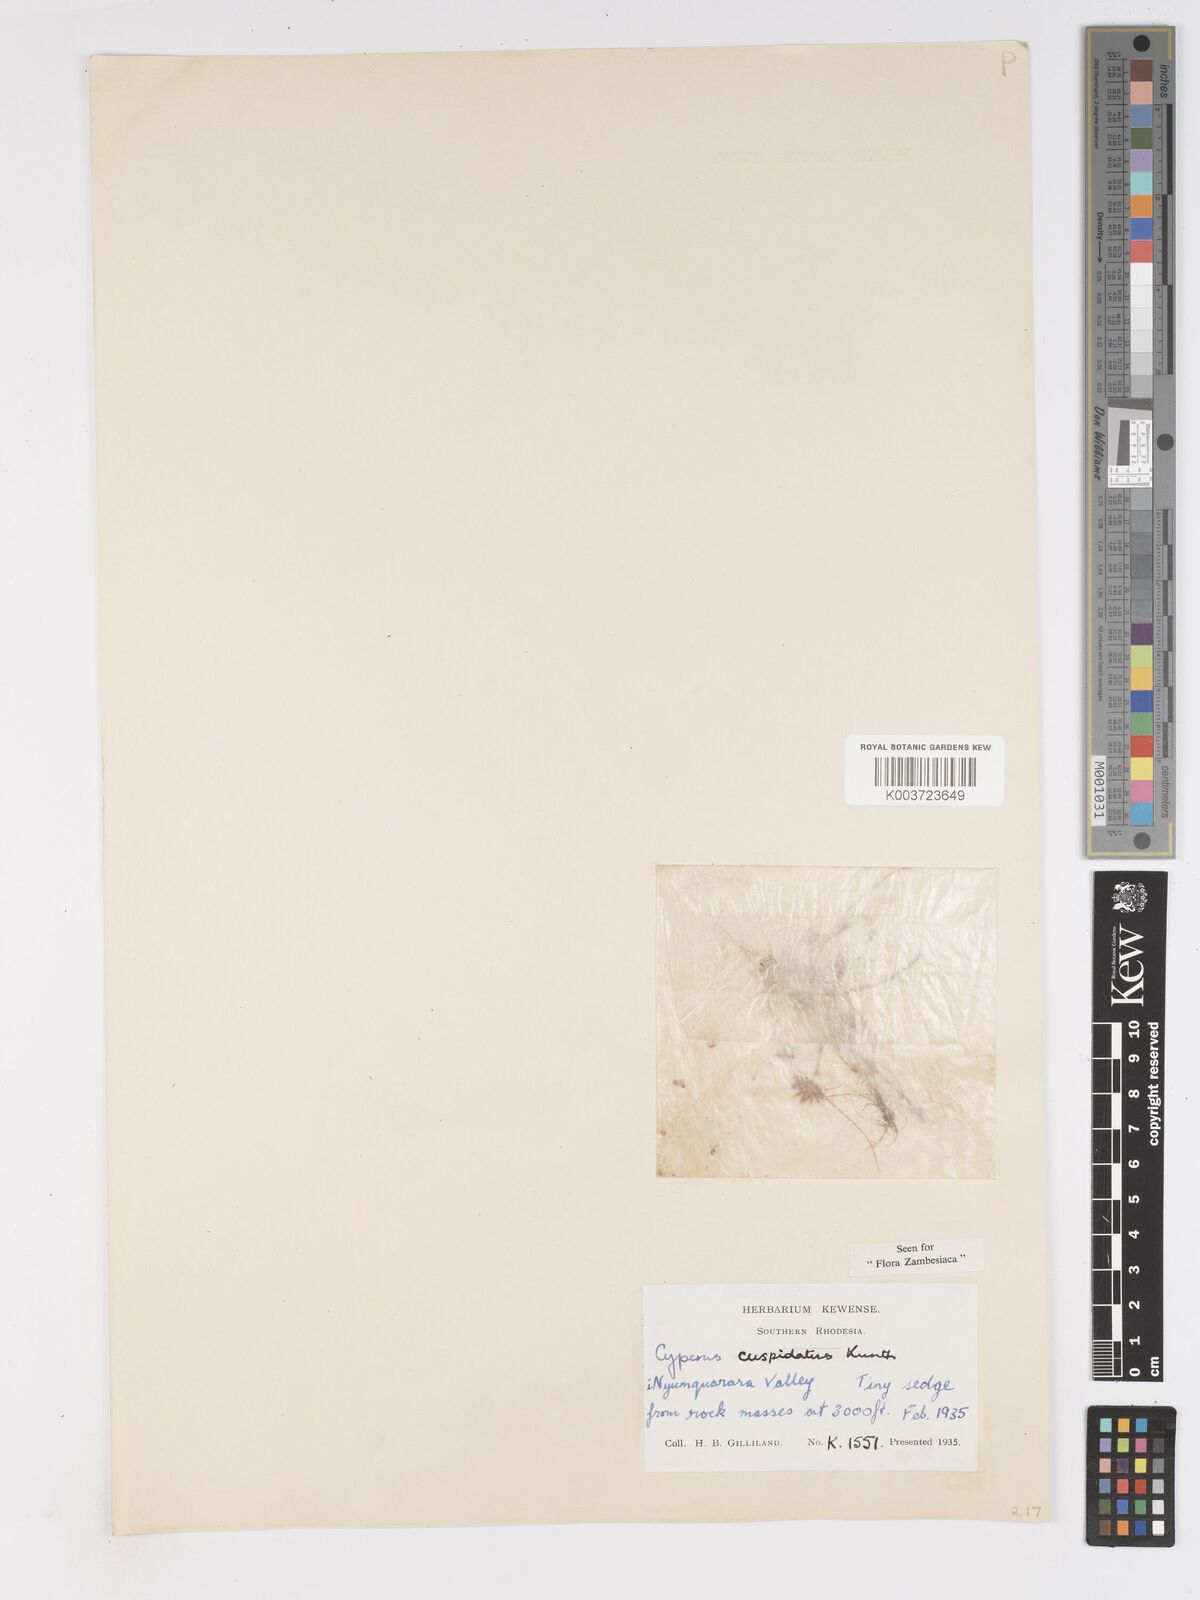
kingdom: Plantae
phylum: Tracheophyta
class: Liliopsida
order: Poales
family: Cyperaceae
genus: Cyperus
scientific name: Cyperus betafensis
